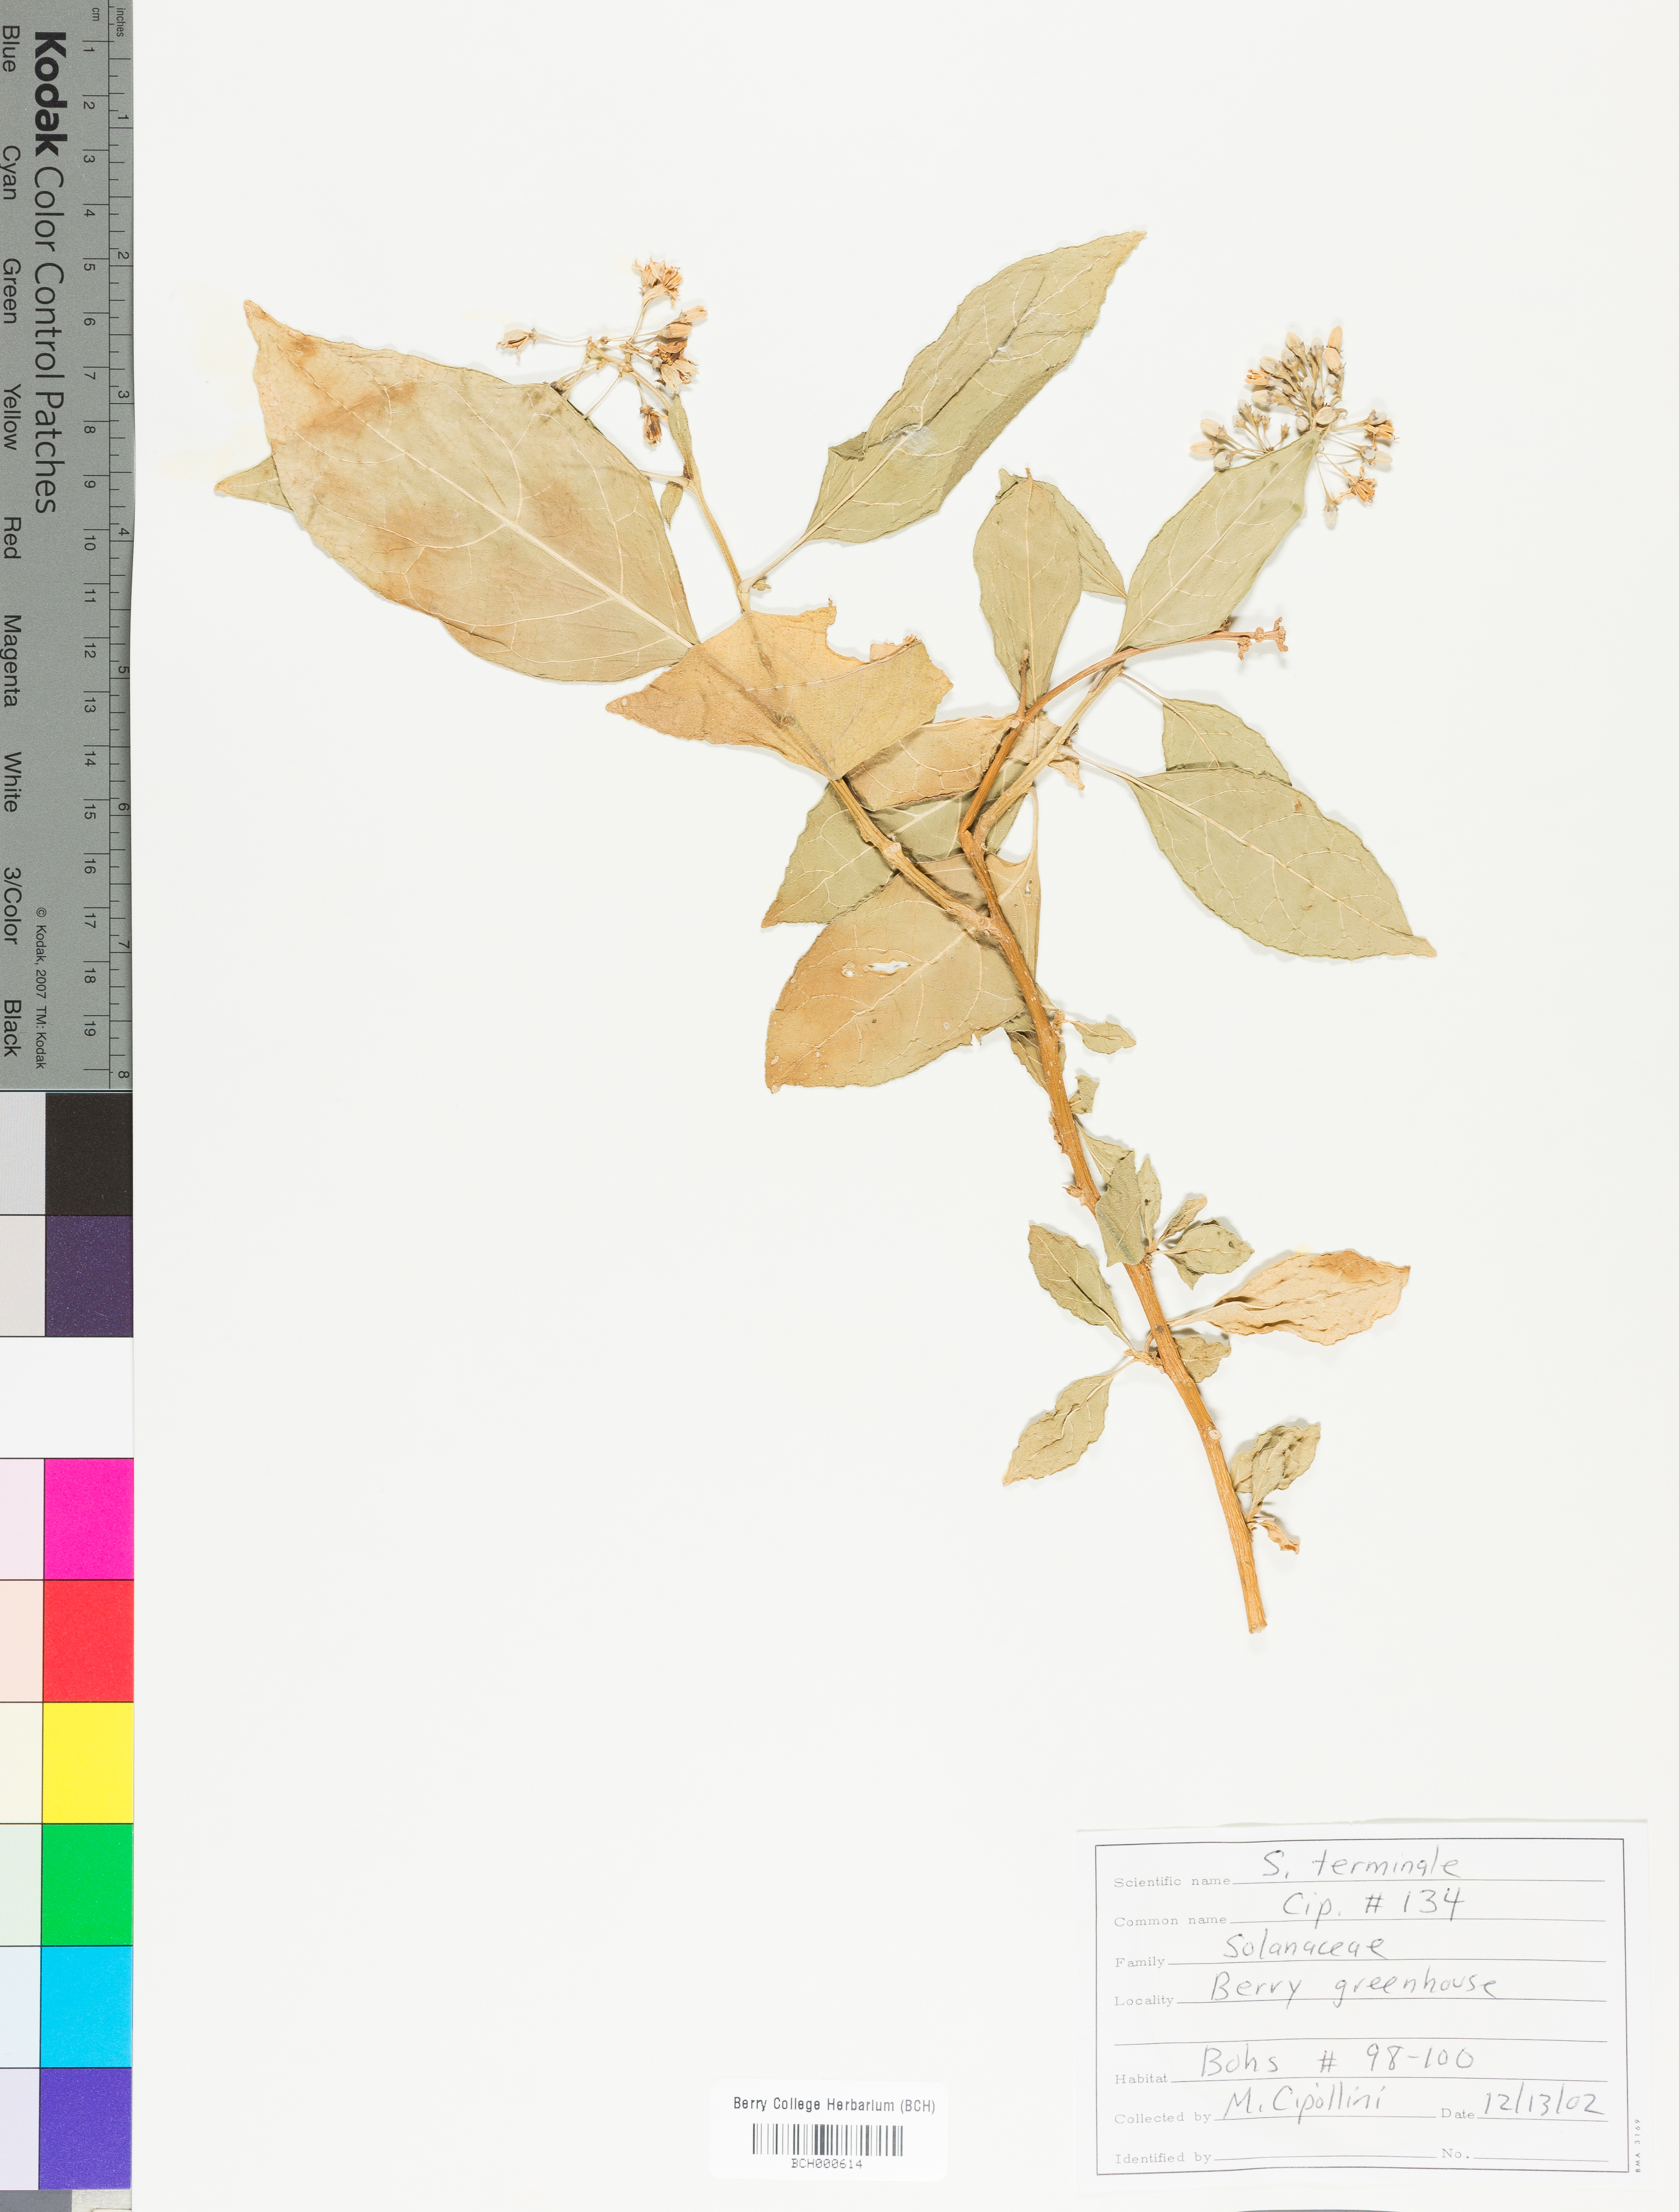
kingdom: Plantae
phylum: Tracheophyta
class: Magnoliopsida
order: Solanales
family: Solanaceae
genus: Solanum
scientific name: Solanum terminale
